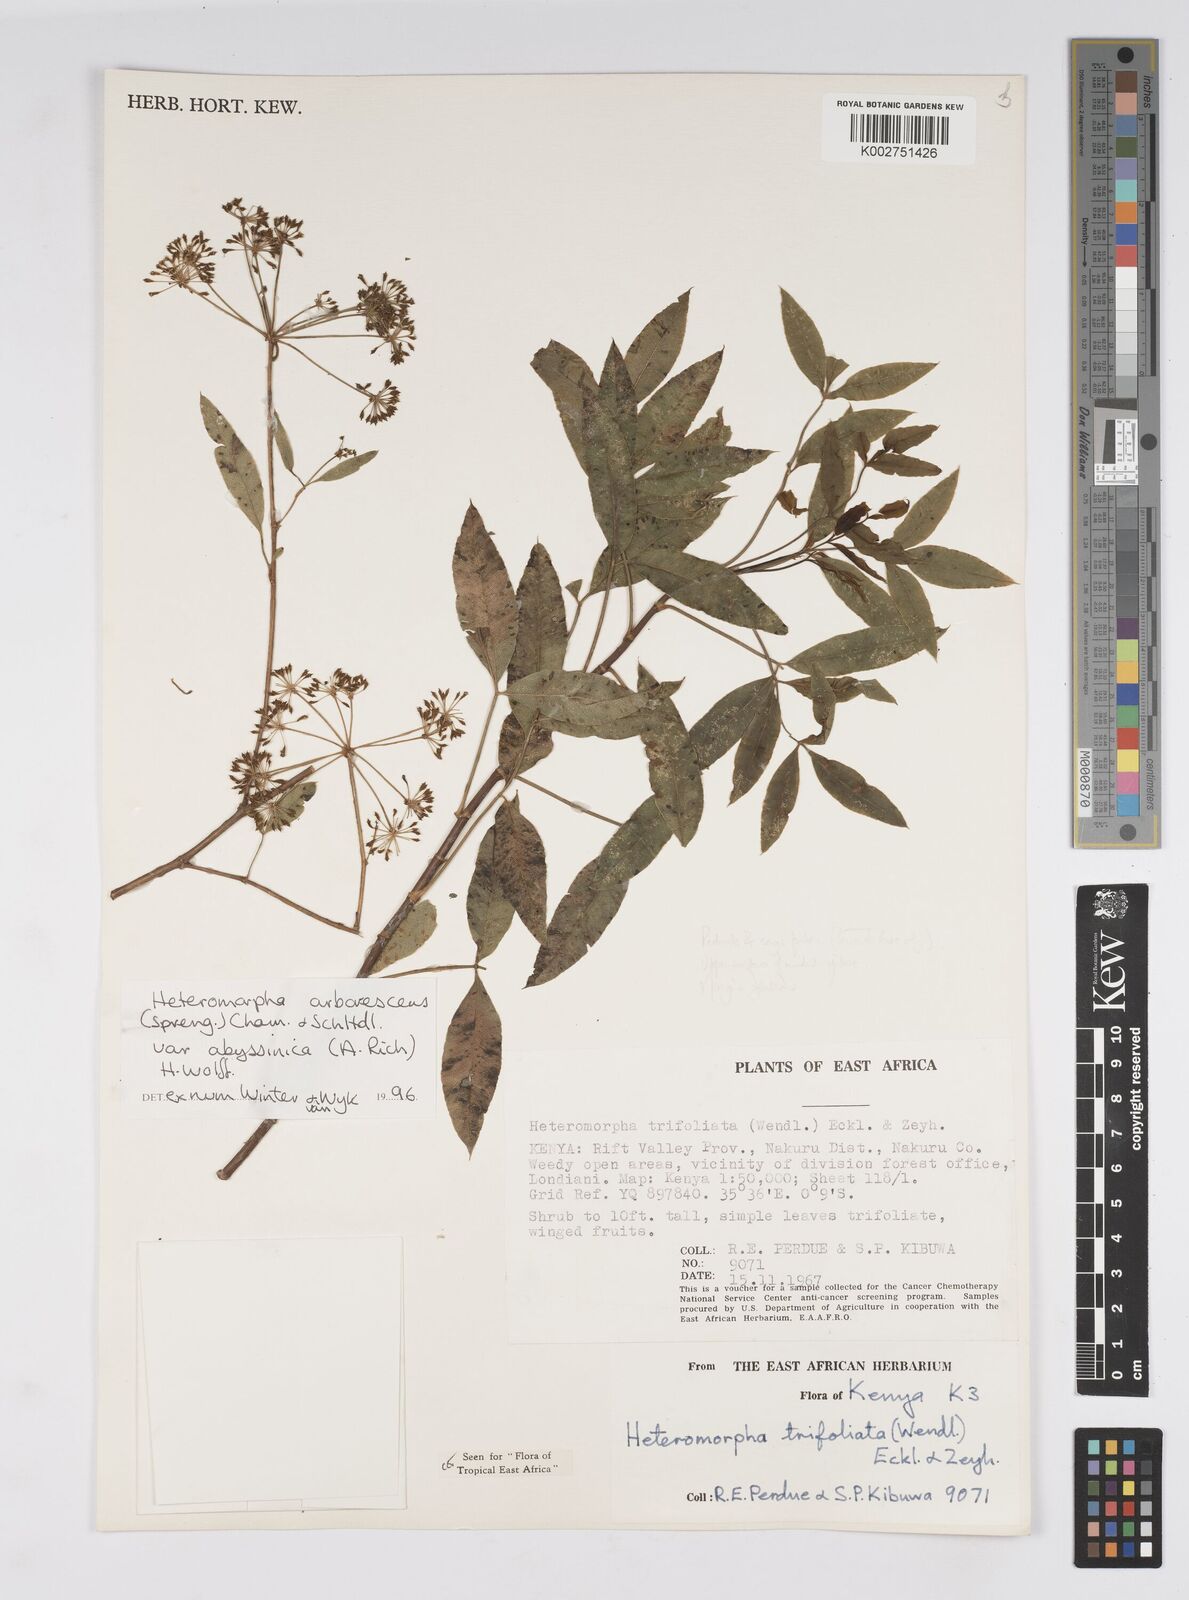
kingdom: Plantae
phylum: Tracheophyta
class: Magnoliopsida
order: Apiales
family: Apiaceae
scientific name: Apiaceae
